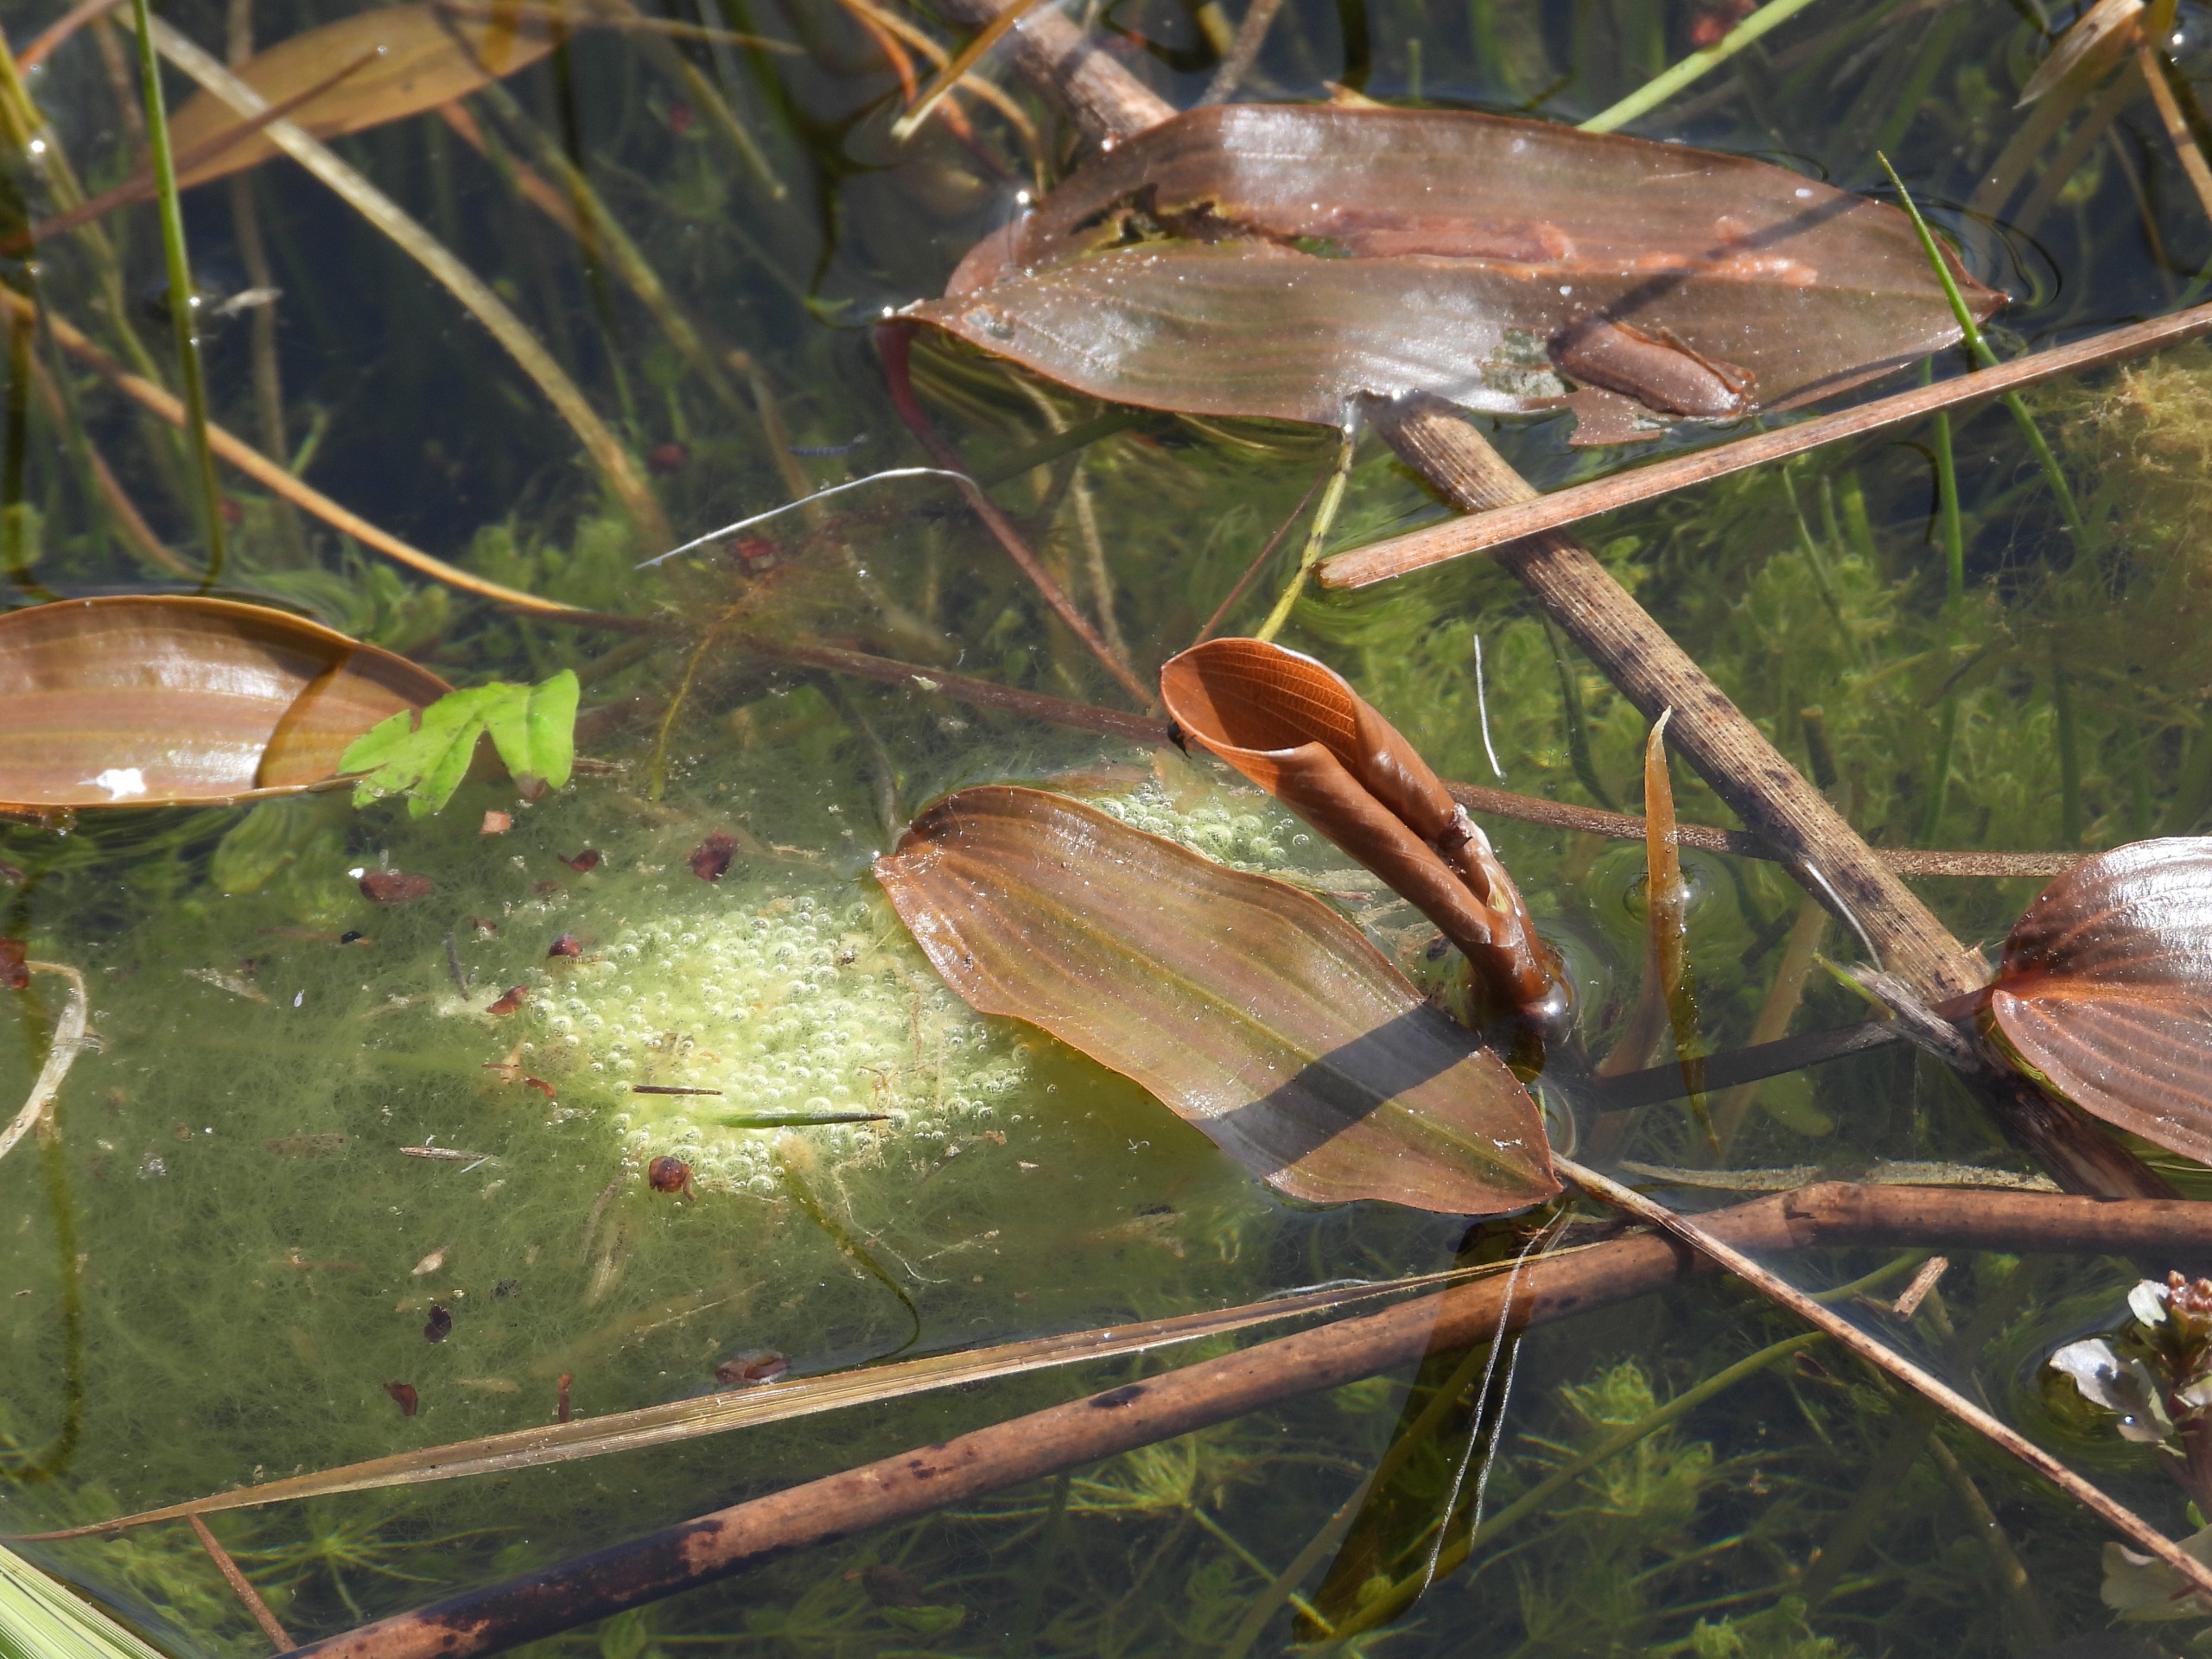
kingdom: Plantae
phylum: Tracheophyta
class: Liliopsida
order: Alismatales
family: Potamogetonaceae
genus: Potamogeton
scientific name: Potamogeton
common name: Vandaks (Potamogeton-slægten)
